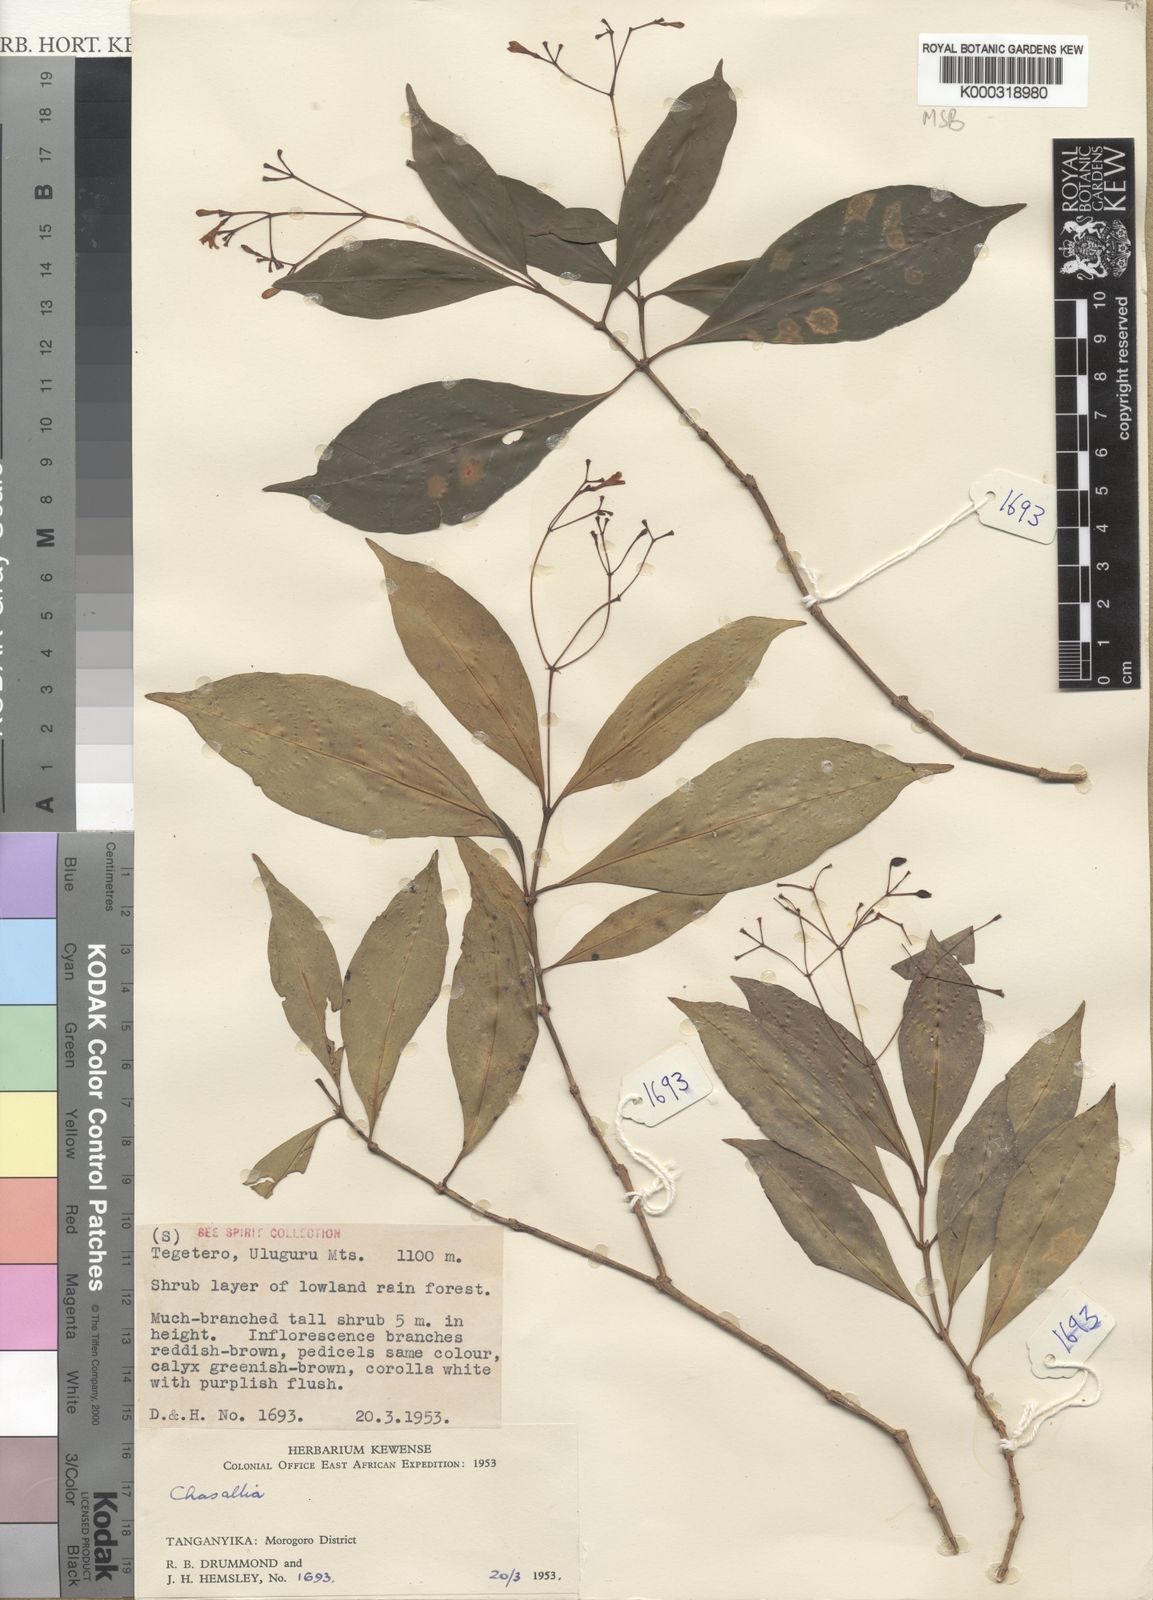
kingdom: Plantae
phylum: Tracheophyta
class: Magnoliopsida
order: Gentianales
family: Rubiaceae
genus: Chassalia
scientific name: Chassalia violacea
